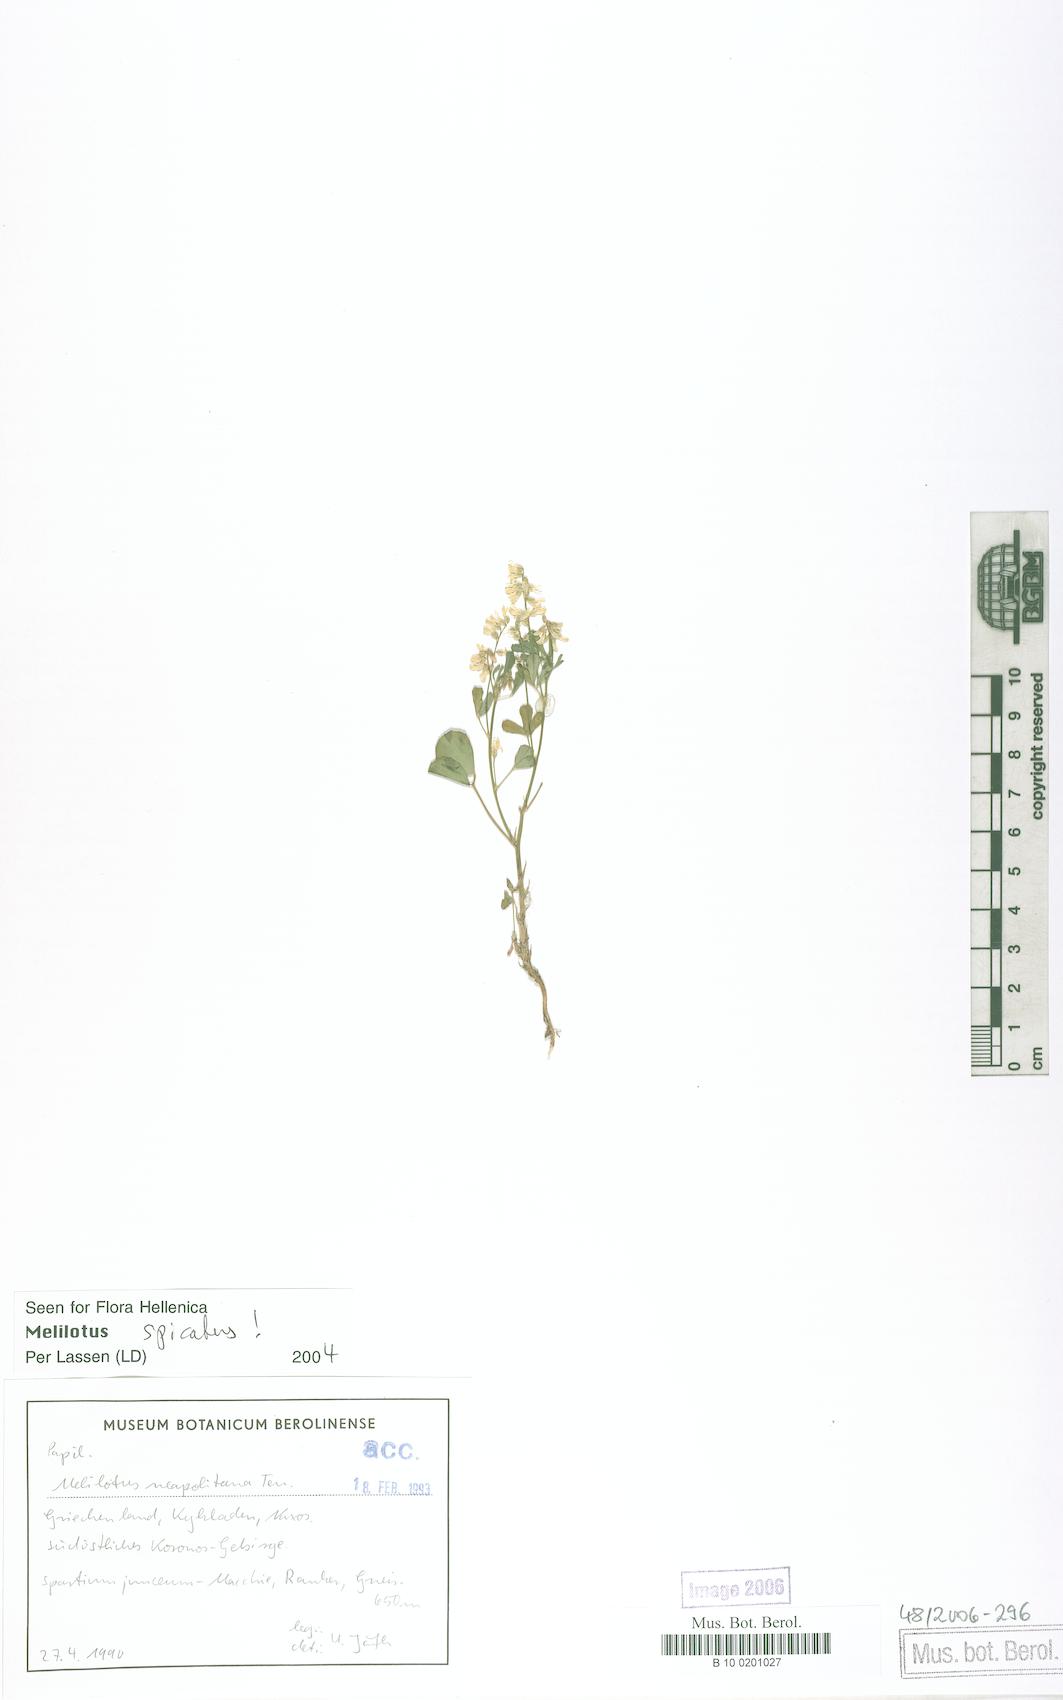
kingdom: Plantae
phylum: Tracheophyta
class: Magnoliopsida
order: Fabales
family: Fabaceae
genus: Melilotus
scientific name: Melilotus neapolitanus
